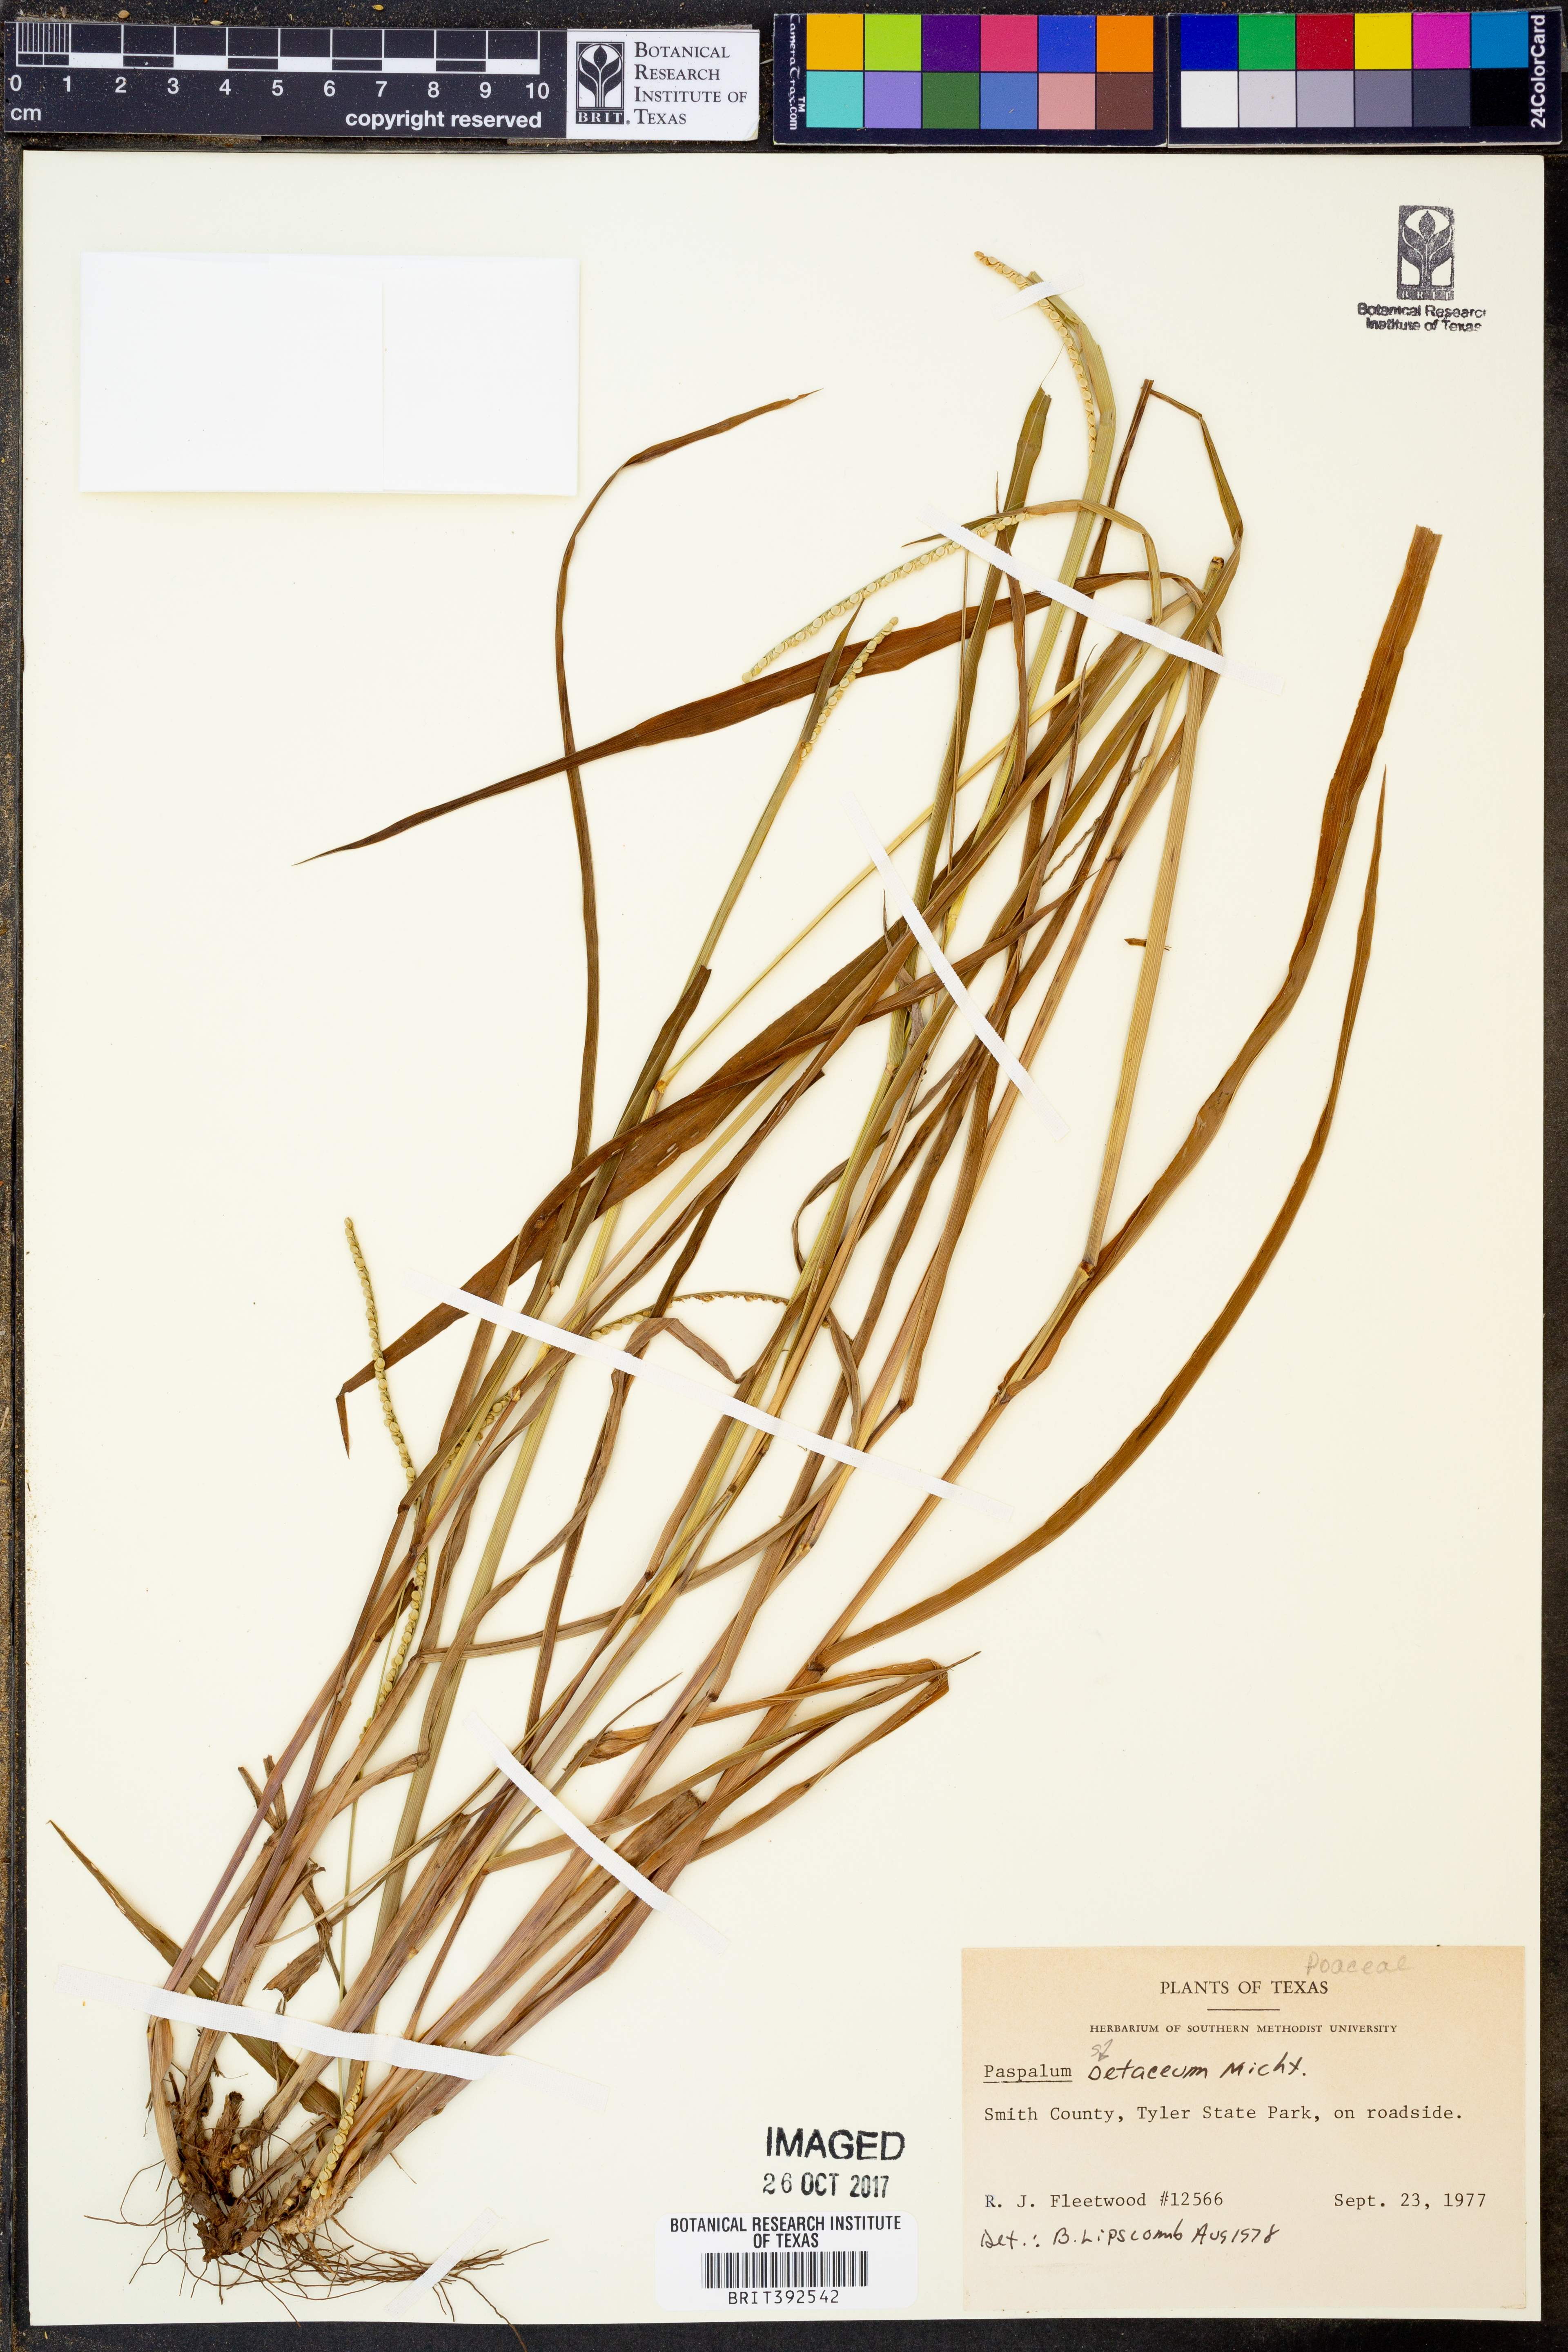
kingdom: Plantae
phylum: Tracheophyta
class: Liliopsida
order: Poales
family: Poaceae
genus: Paspalum
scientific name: Paspalum setaceum
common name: Slender paspalum
